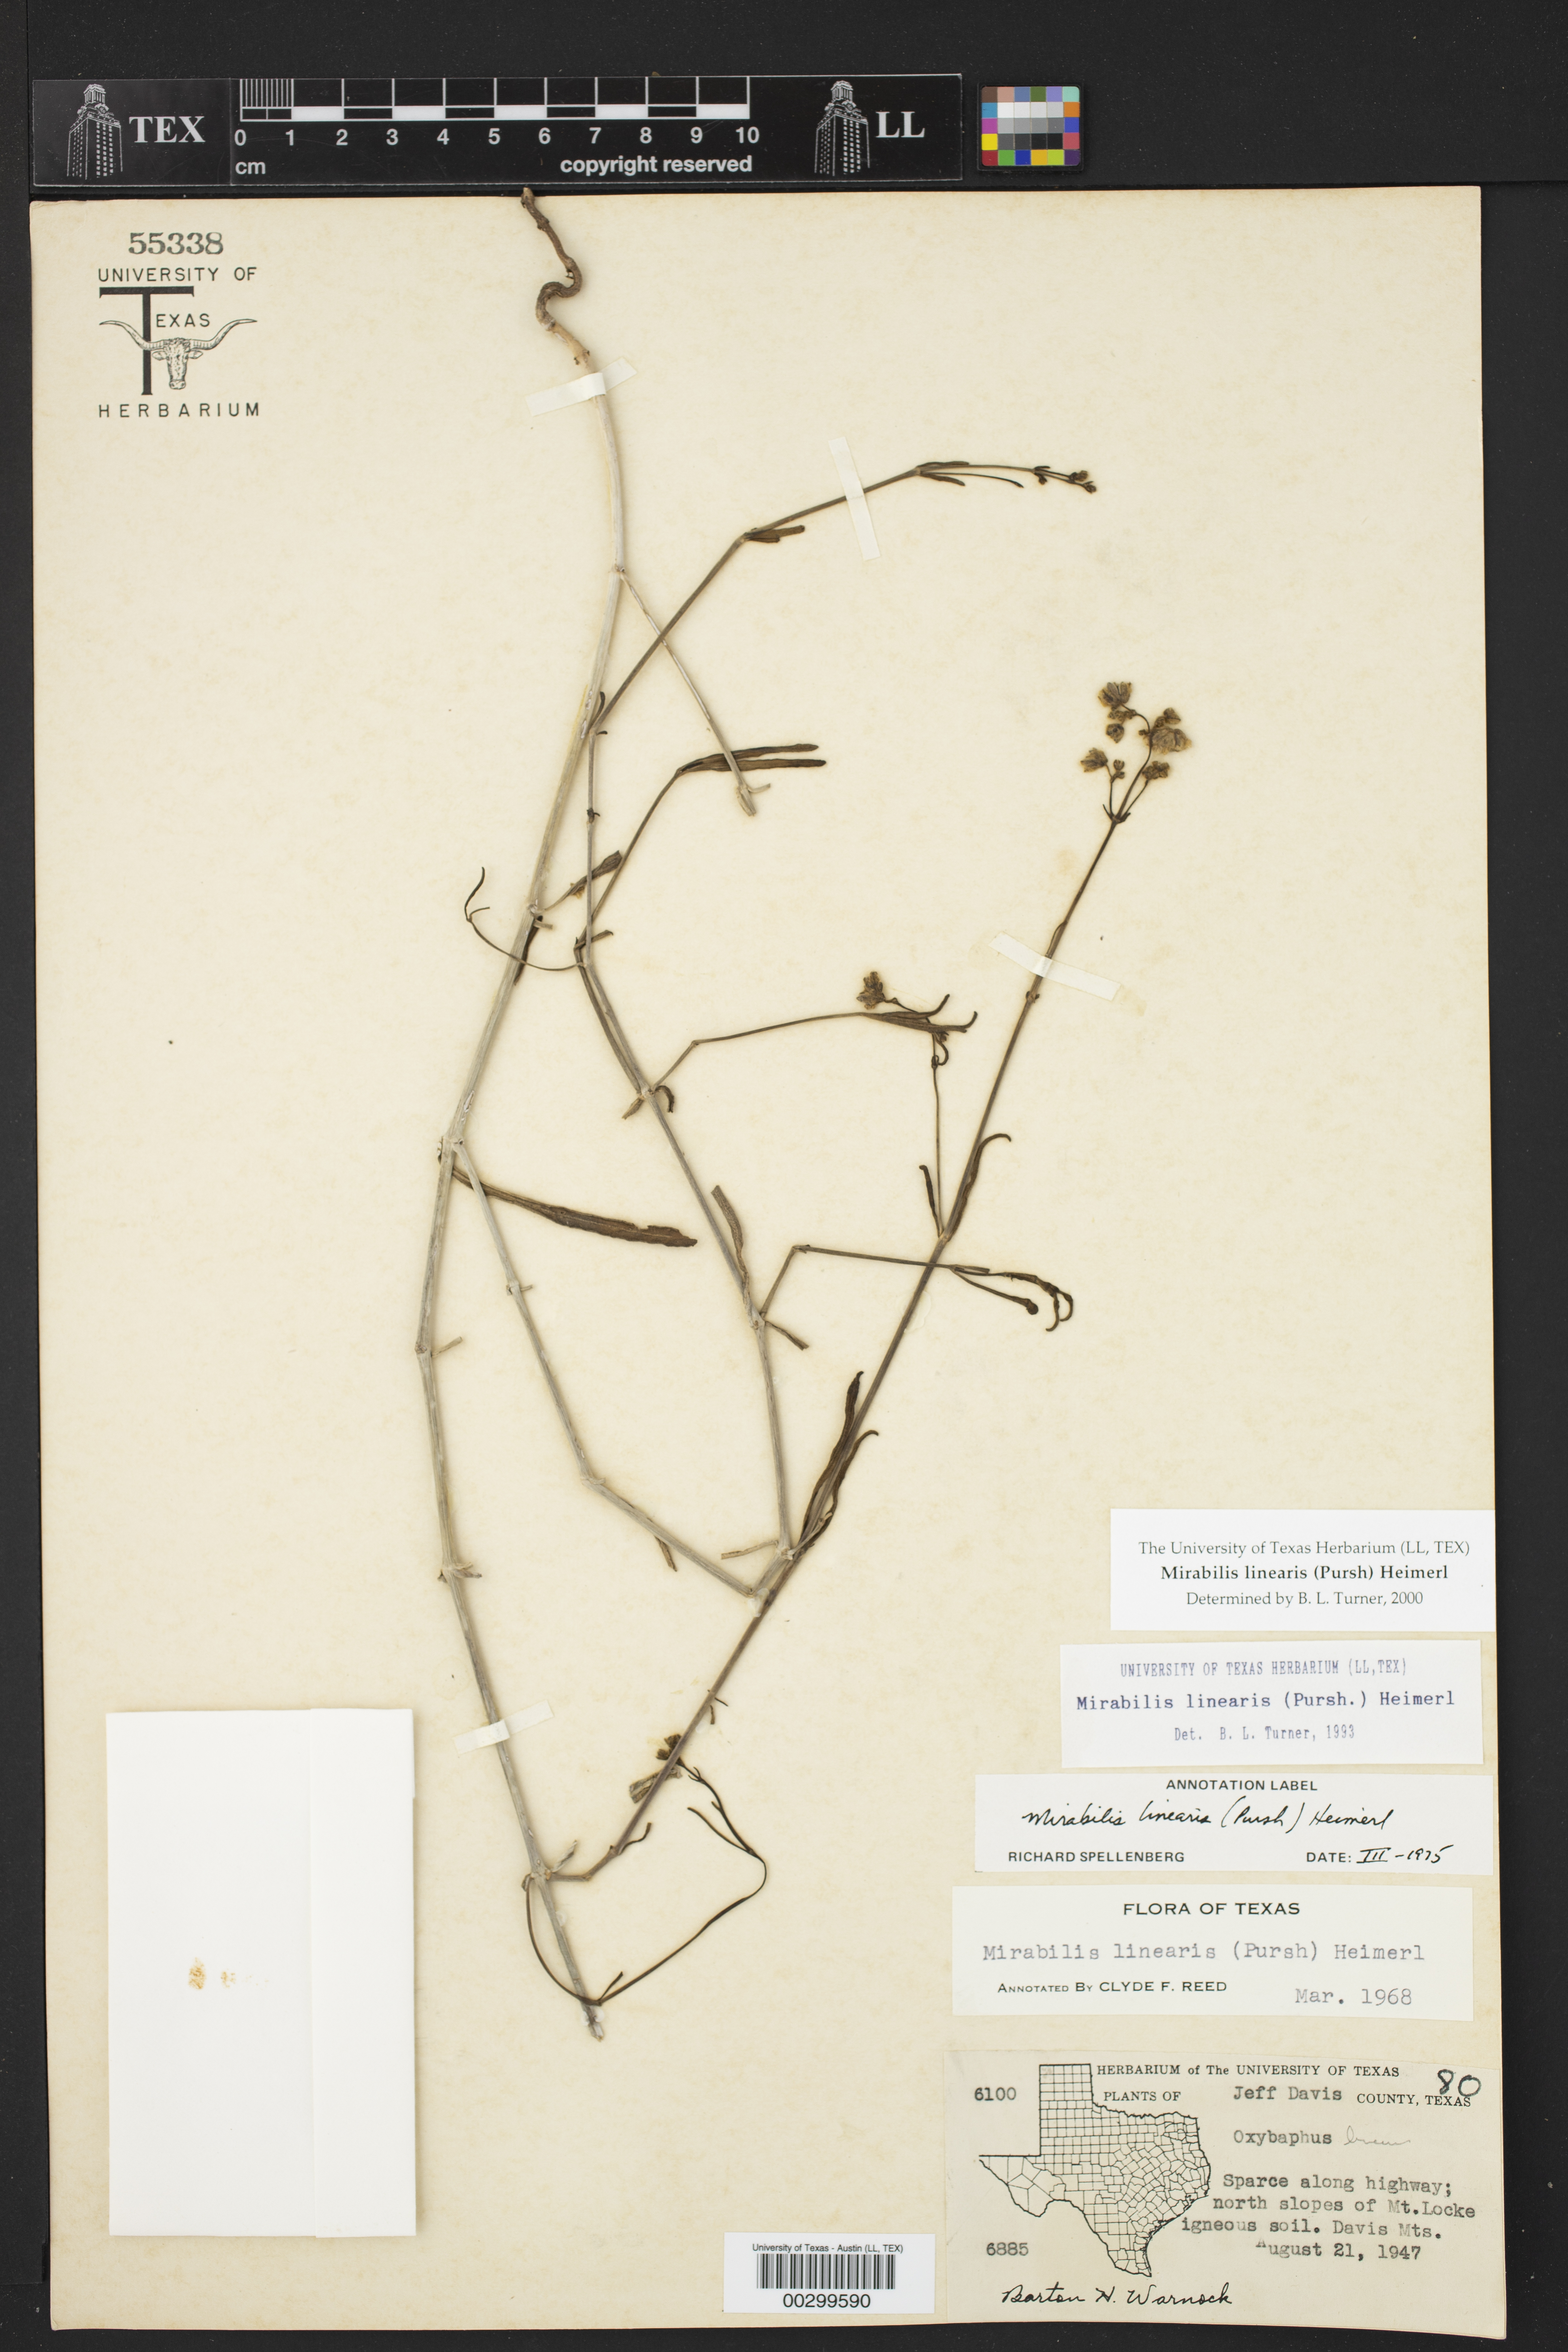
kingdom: Plantae
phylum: Tracheophyta
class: Magnoliopsida
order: Caryophyllales
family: Nyctaginaceae
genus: Mirabilis
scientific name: Mirabilis linearis
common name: Linear-leaved four-o'clock
